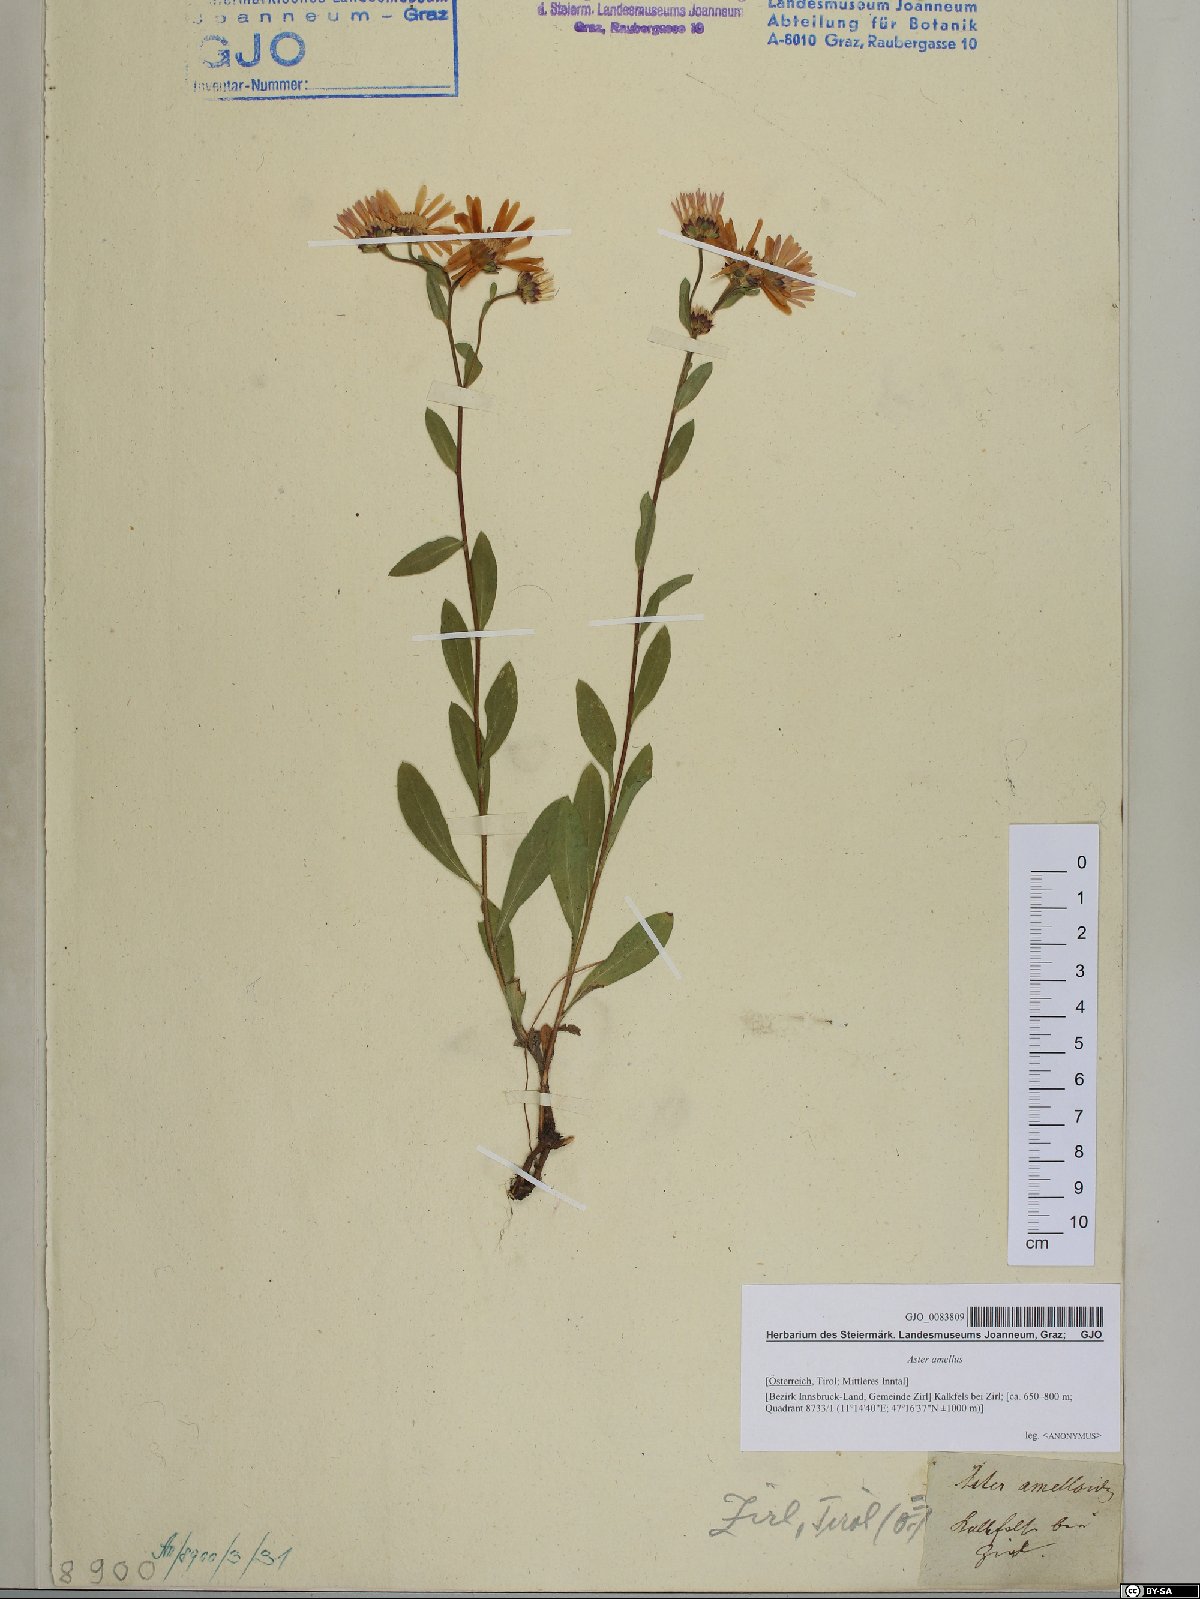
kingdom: Plantae
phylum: Tracheophyta
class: Magnoliopsida
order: Asterales
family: Asteraceae
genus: Aster
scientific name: Aster amellus
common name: European michaelmas daisy
